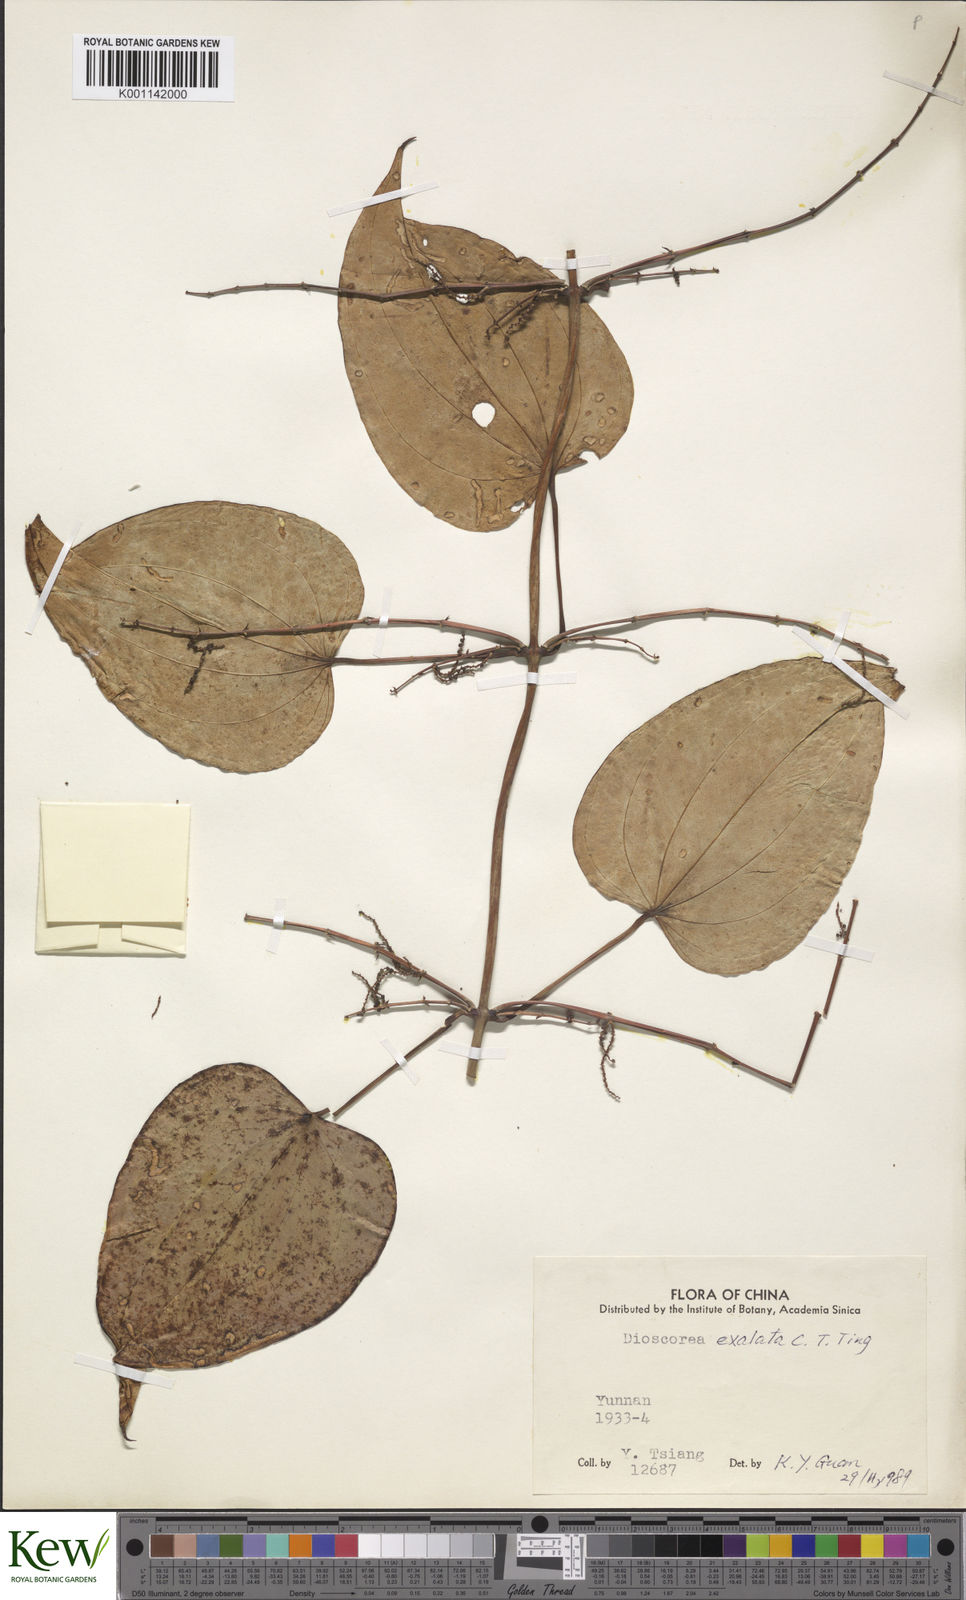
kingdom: Plantae
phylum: Tracheophyta
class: Liliopsida
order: Dioscoreales
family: Dioscoreaceae
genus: Dioscorea
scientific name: Dioscorea exalata
